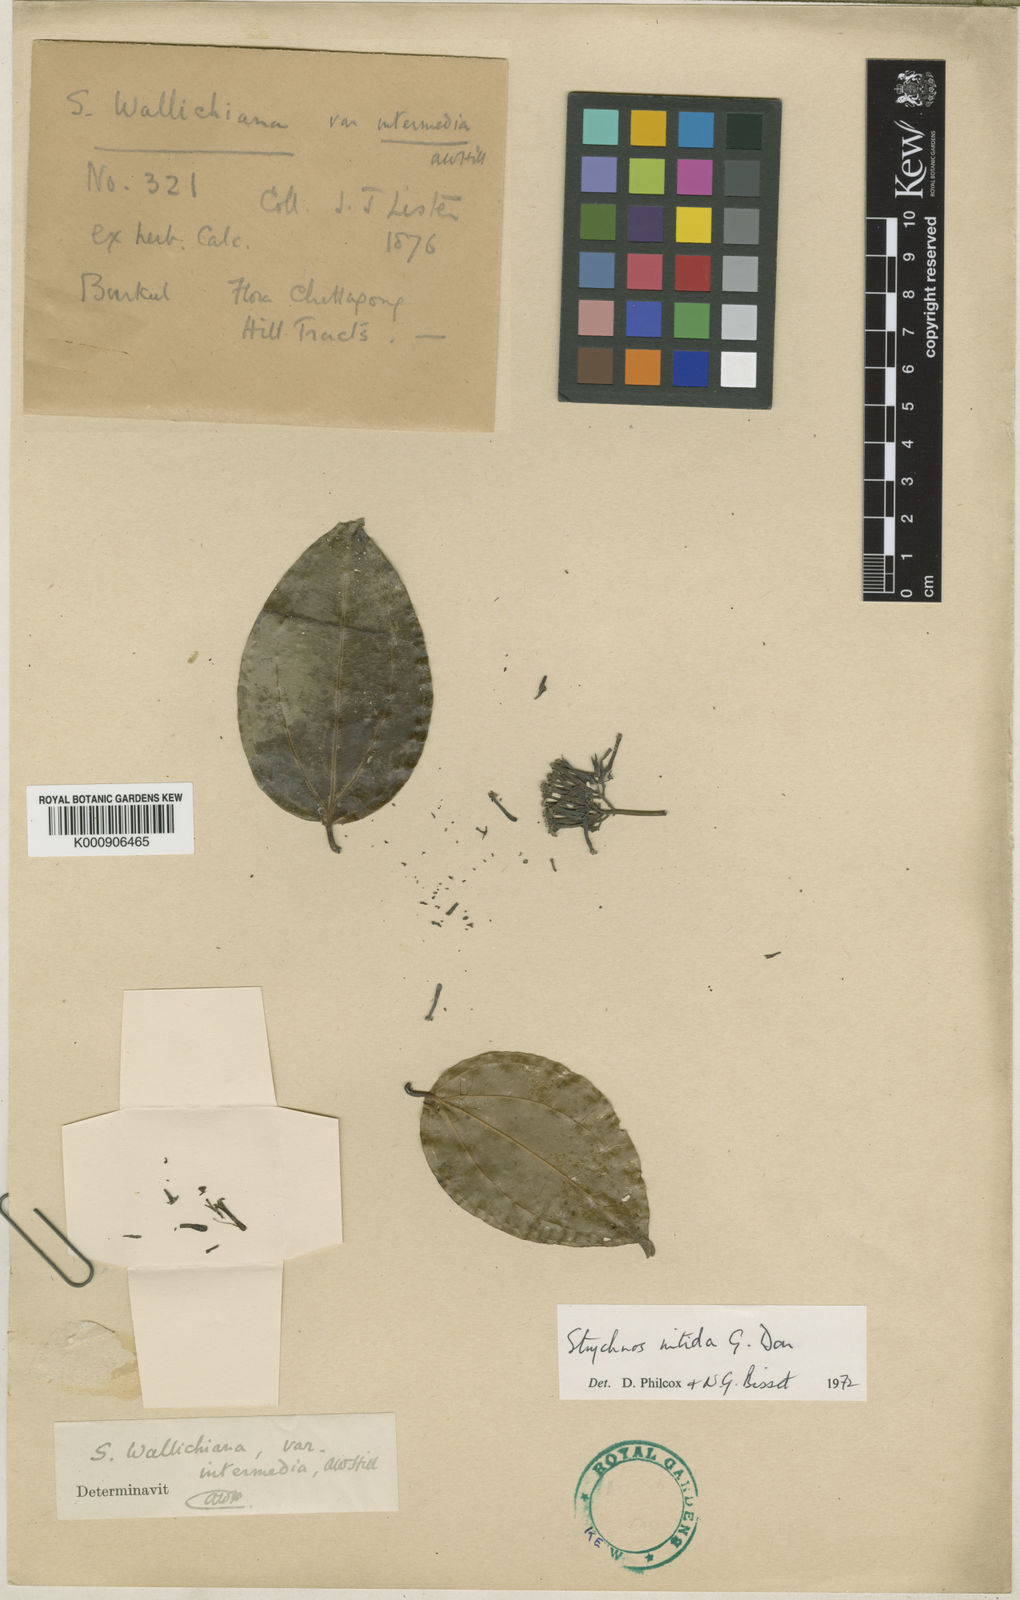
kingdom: Plantae
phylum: Tracheophyta
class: Magnoliopsida
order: Gentianales
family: Loganiaceae
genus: Strychnos
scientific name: Strychnos nitida
